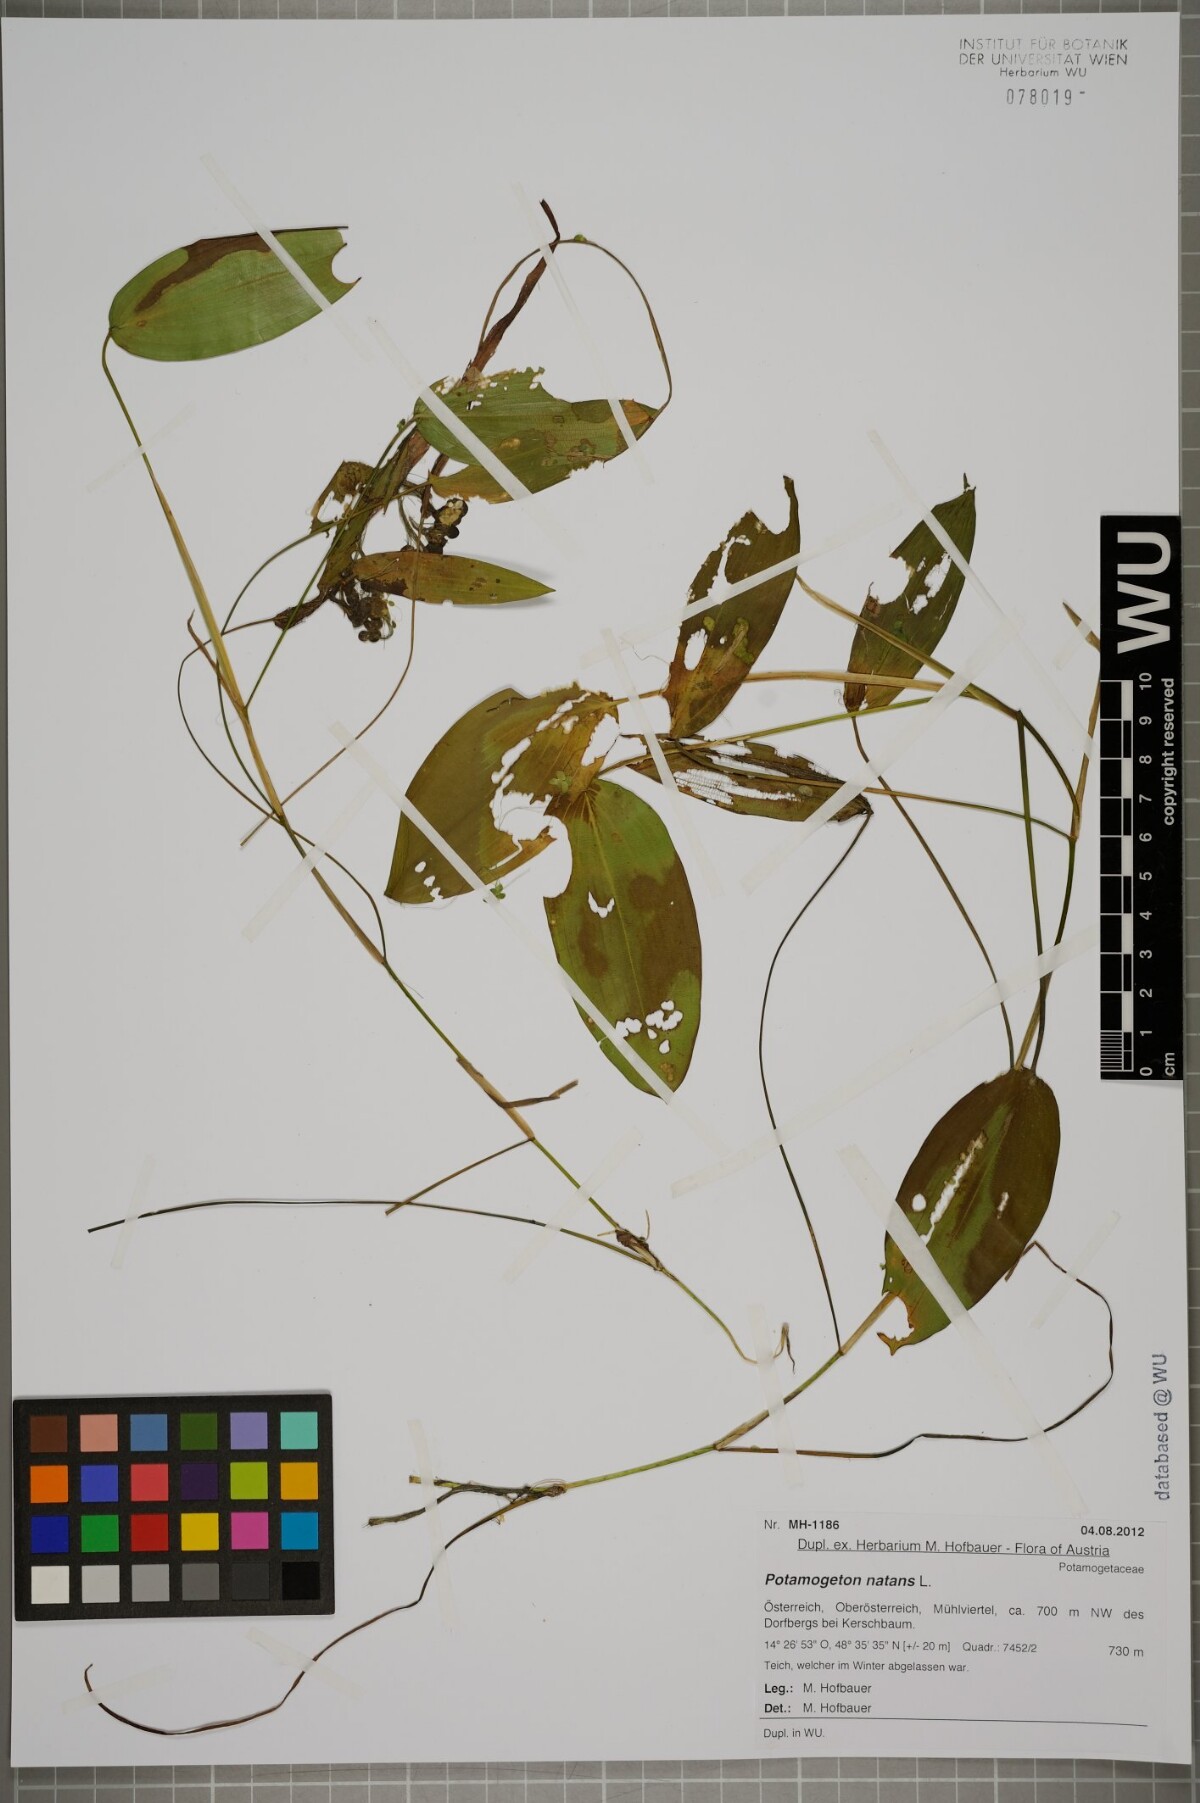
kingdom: Plantae
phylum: Tracheophyta
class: Liliopsida
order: Alismatales
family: Potamogetonaceae
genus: Potamogeton
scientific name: Potamogeton natans
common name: Broad-leaved pondweed
